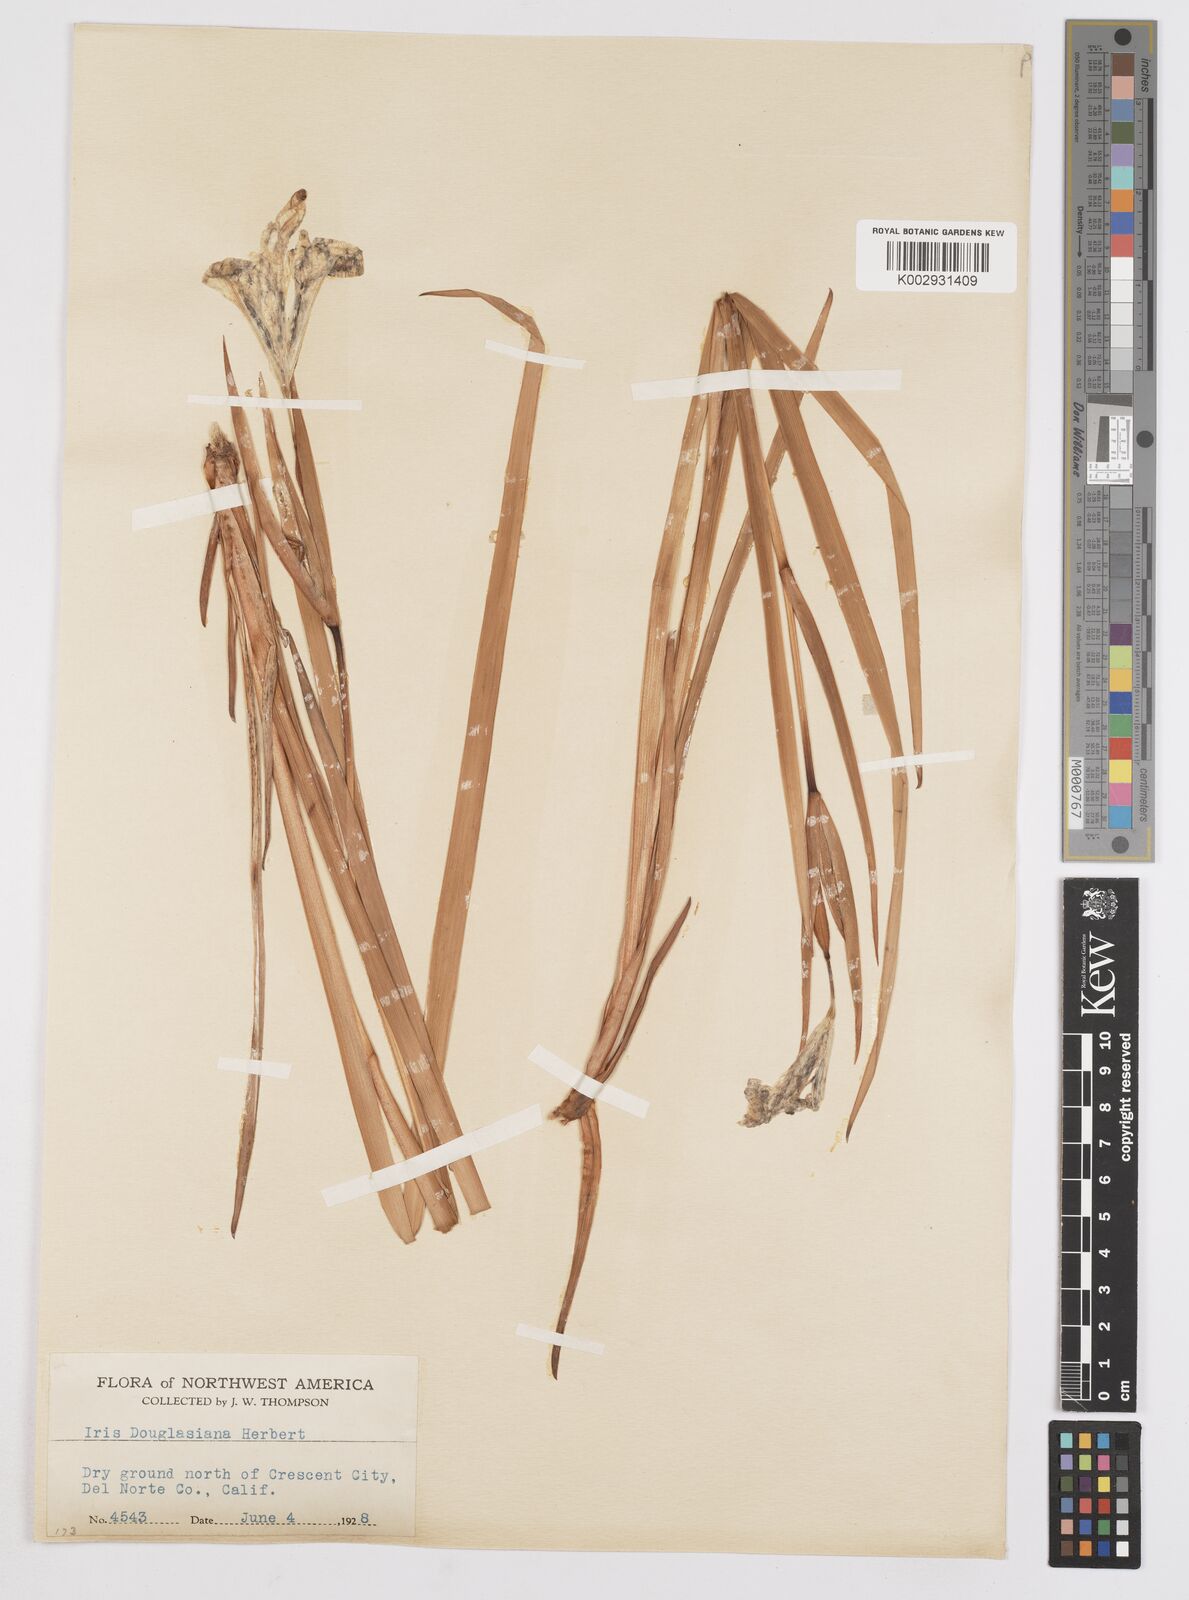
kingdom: Plantae
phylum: Tracheophyta
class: Liliopsida
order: Asparagales
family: Iridaceae
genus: Iris
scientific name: Iris douglasiana
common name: Marin iris
